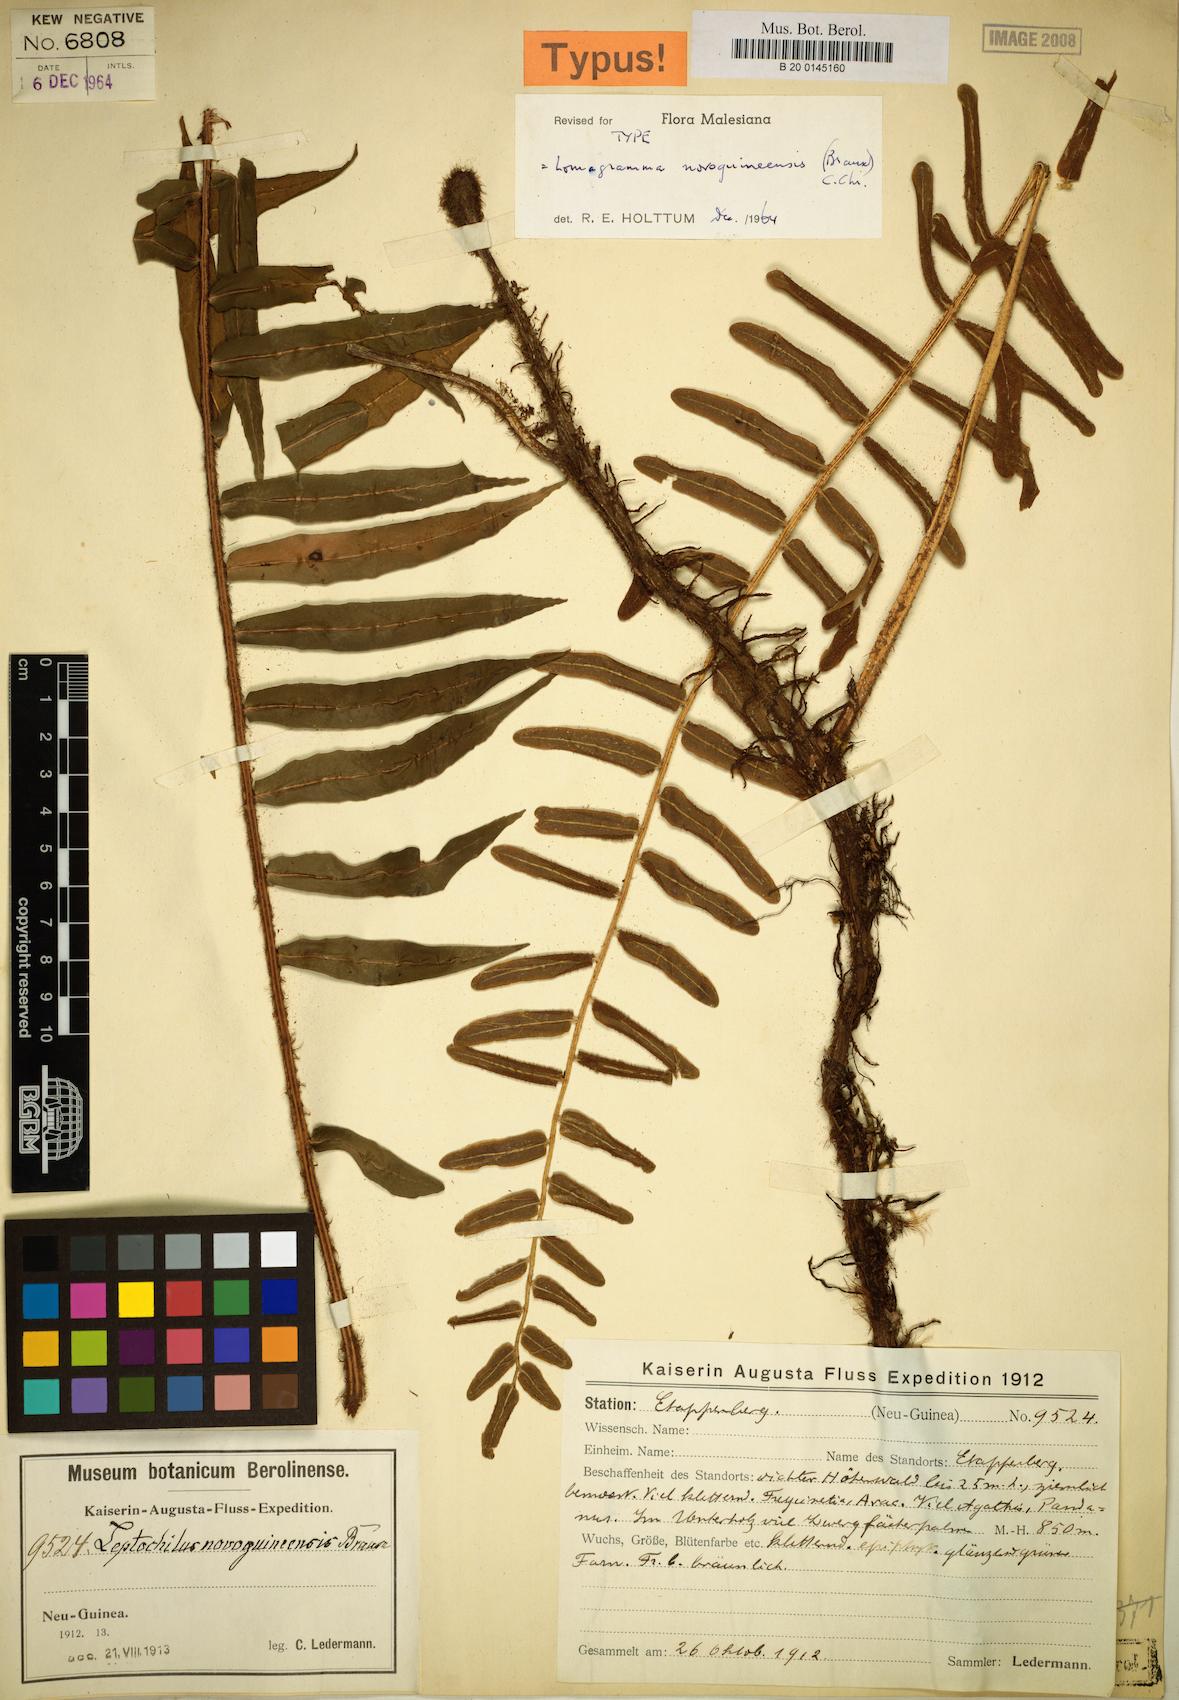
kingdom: Plantae
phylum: Tracheophyta
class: Polypodiopsida
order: Polypodiales
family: Dryopteridaceae
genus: Lomagramma
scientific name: Lomagramma novoguineensis
